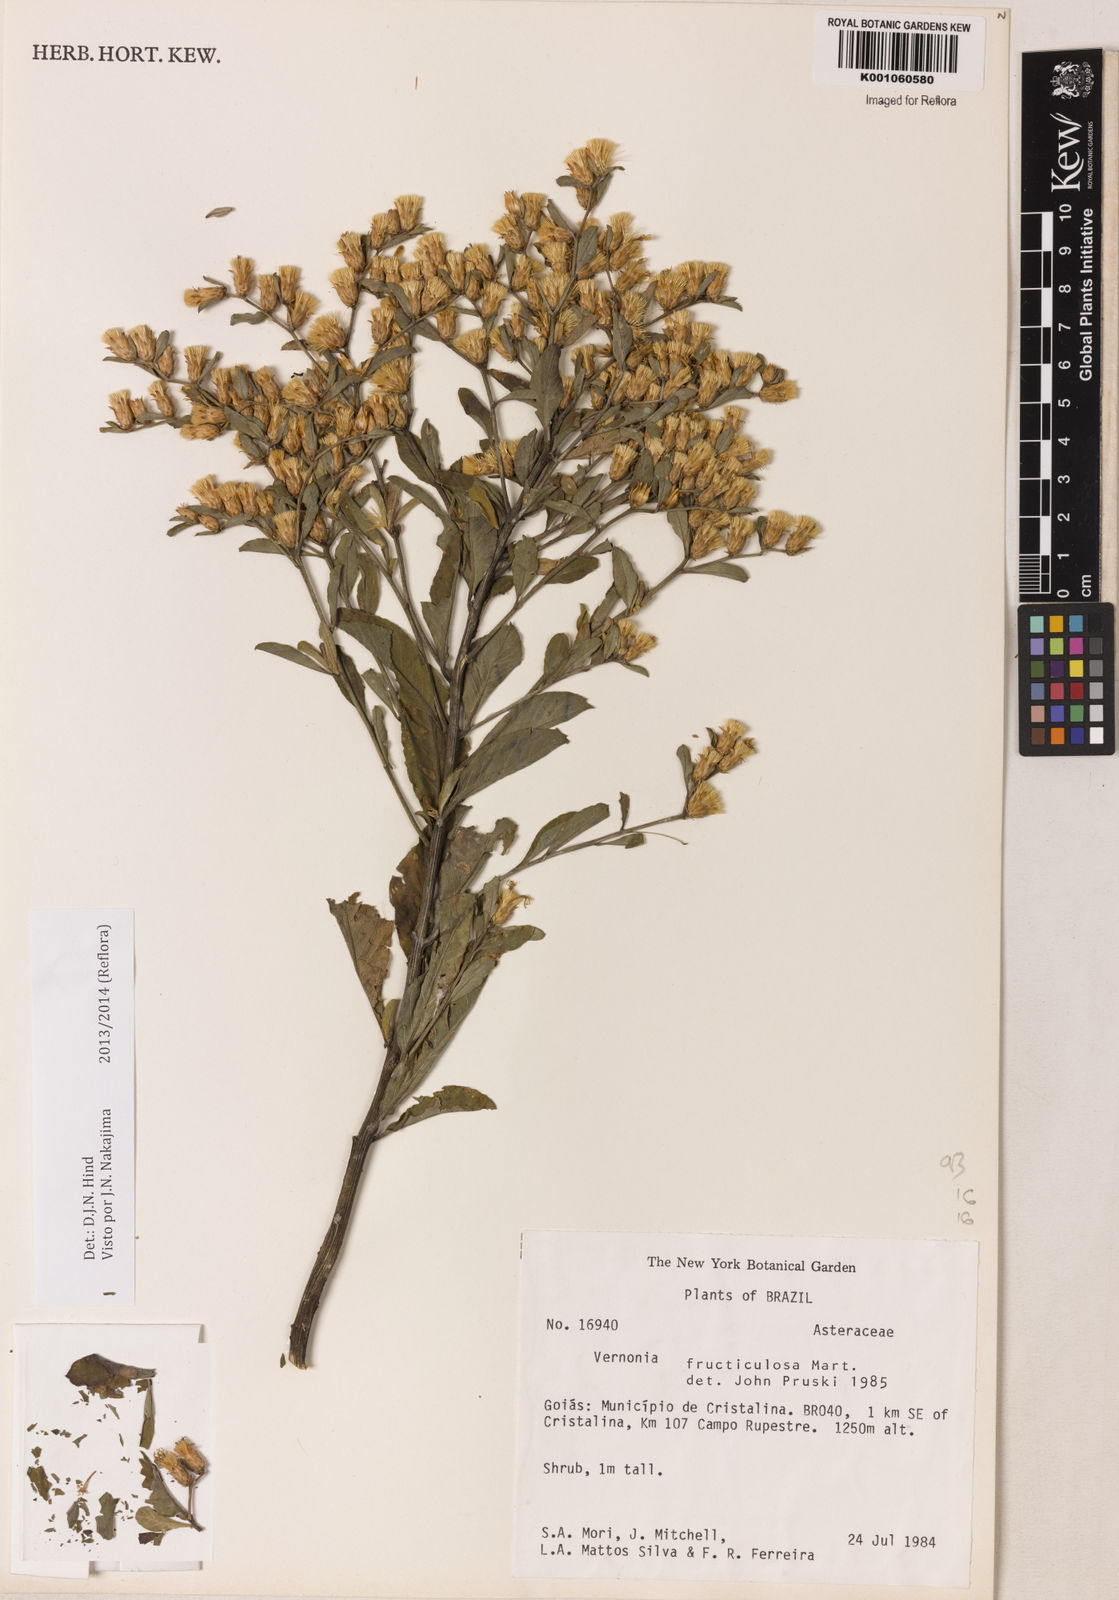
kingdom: Plantae
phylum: Tracheophyta
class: Magnoliopsida
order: Asterales
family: Asteraceae
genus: Lepidaploa
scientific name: Lepidaploa rufogrisea
